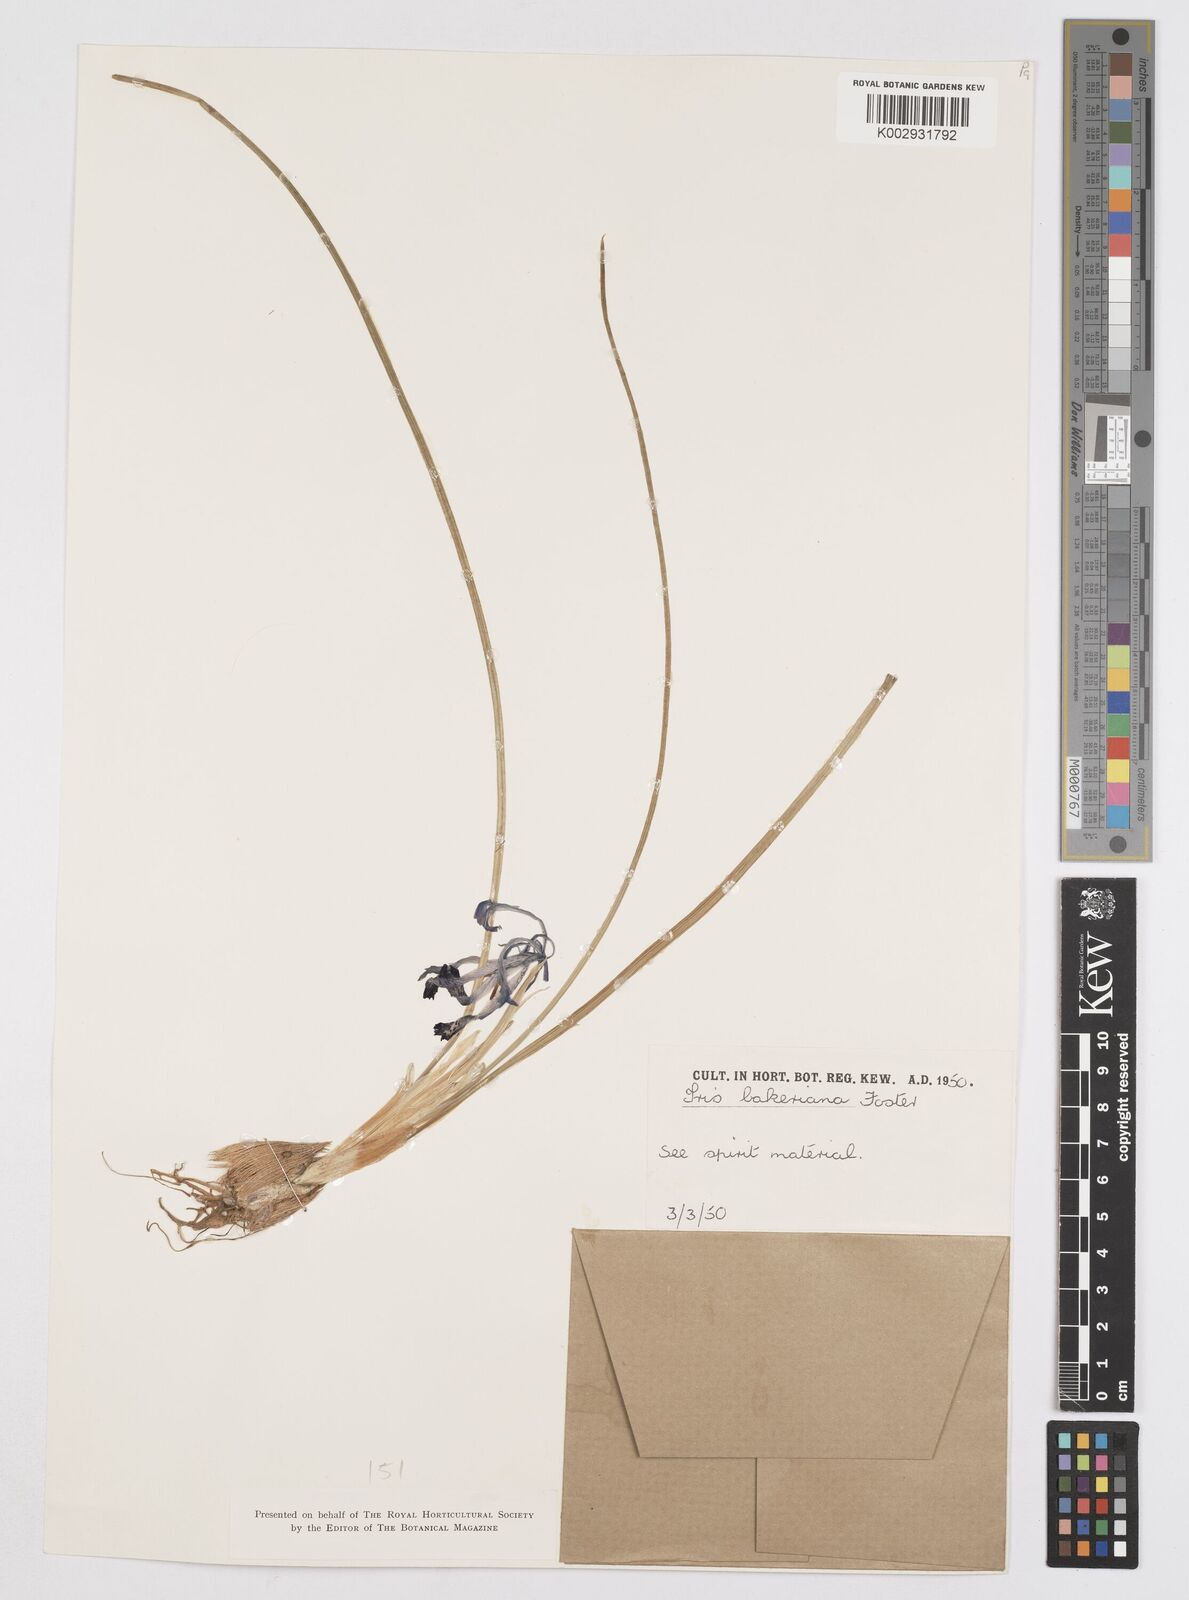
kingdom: Plantae
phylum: Tracheophyta
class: Liliopsida
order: Asparagales
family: Iridaceae
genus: Iris
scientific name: Iris reticulata
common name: Netted iris
